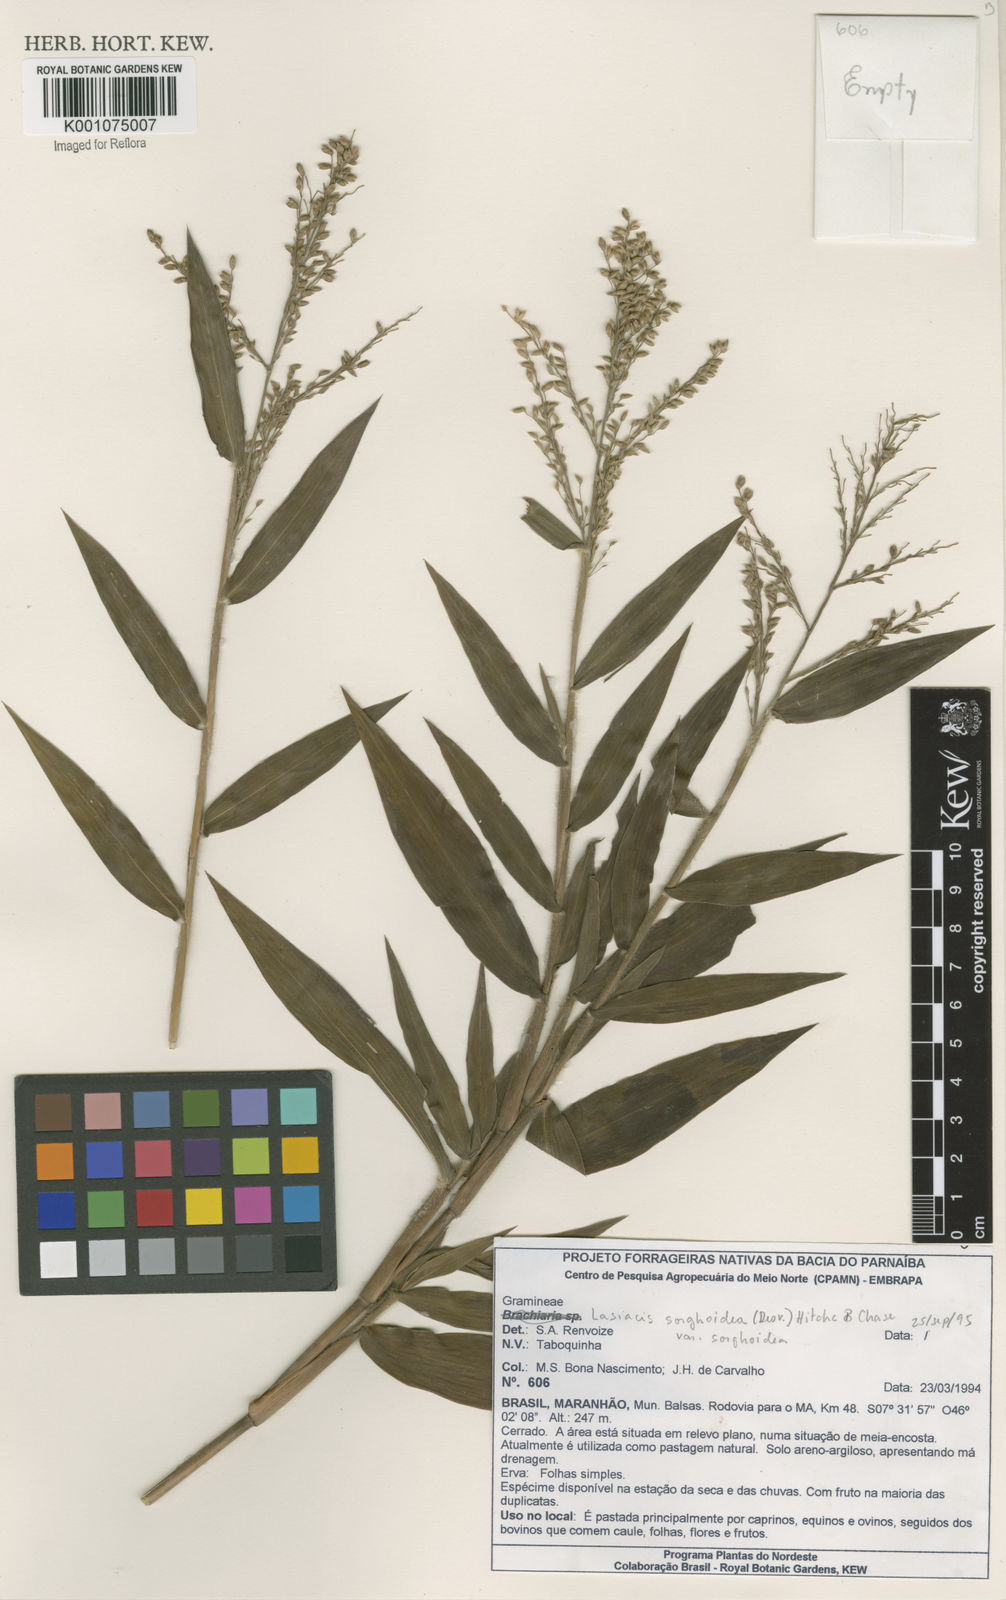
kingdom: Plantae
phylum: Tracheophyta
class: Liliopsida
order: Poales
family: Poaceae
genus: Lasiacis
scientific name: Lasiacis maculata
